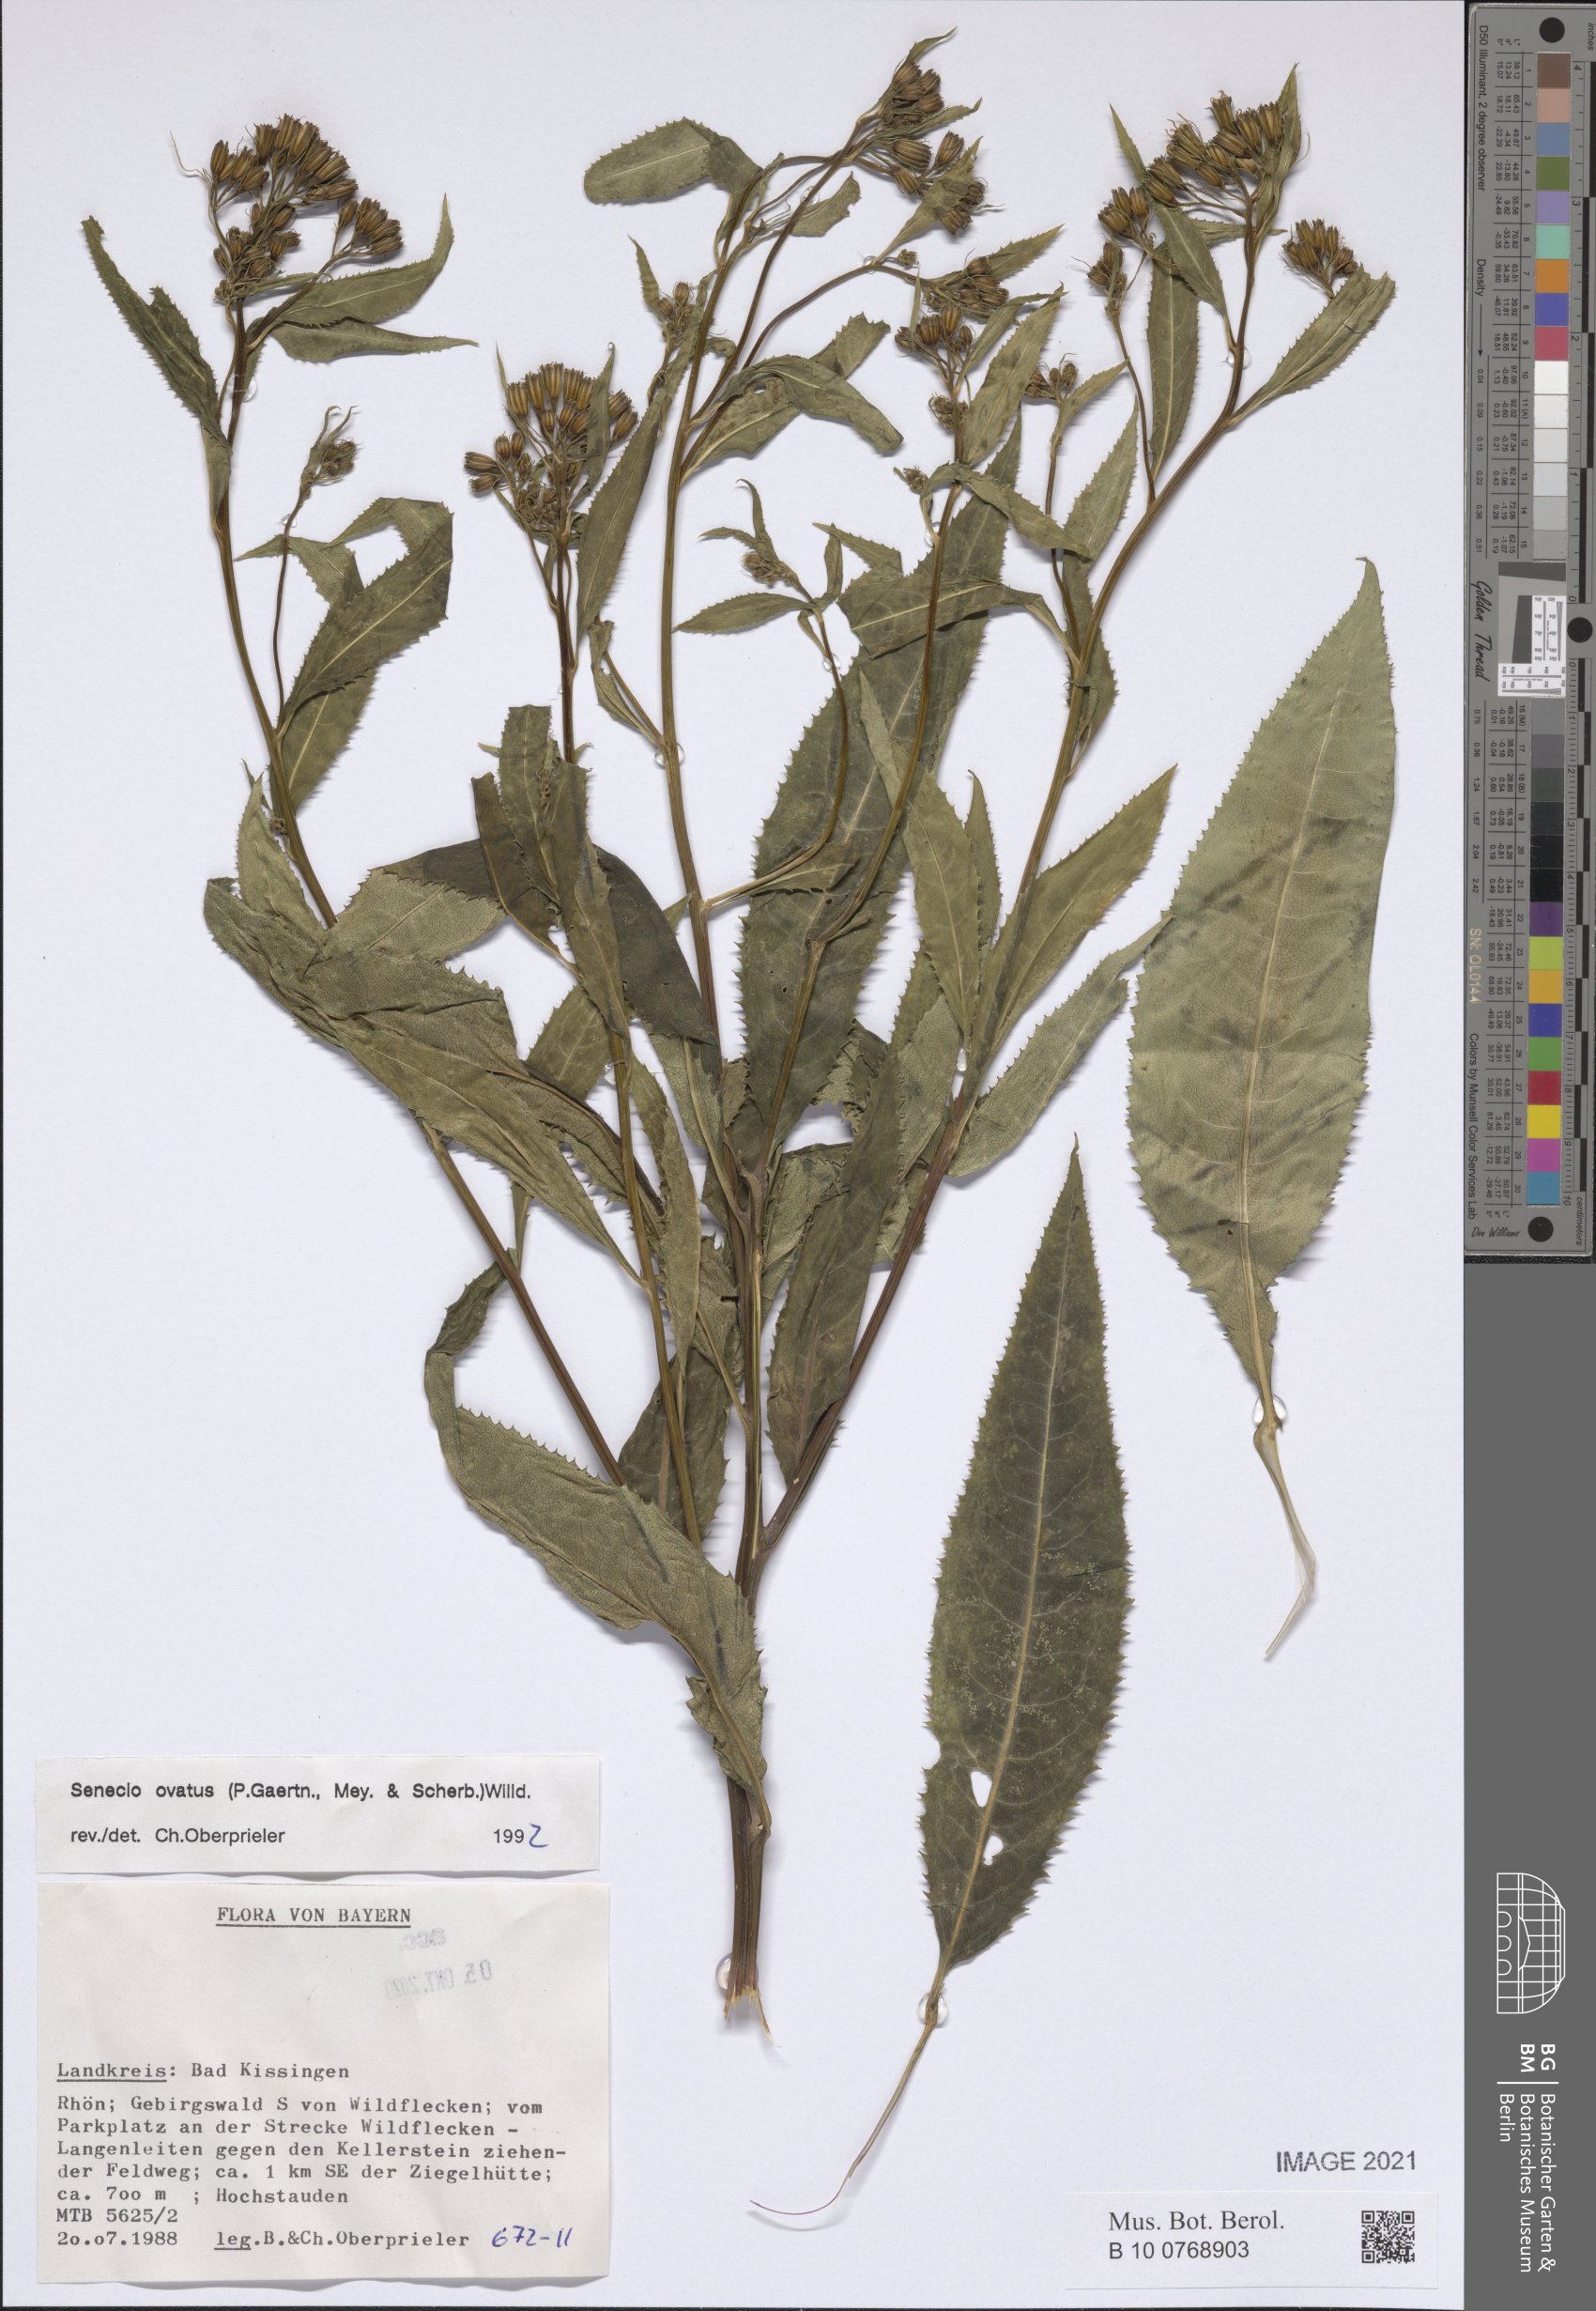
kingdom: Plantae
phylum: Tracheophyta
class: Magnoliopsida
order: Asterales
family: Asteraceae
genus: Senecio
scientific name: Senecio ovatus
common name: Wood ragwort
